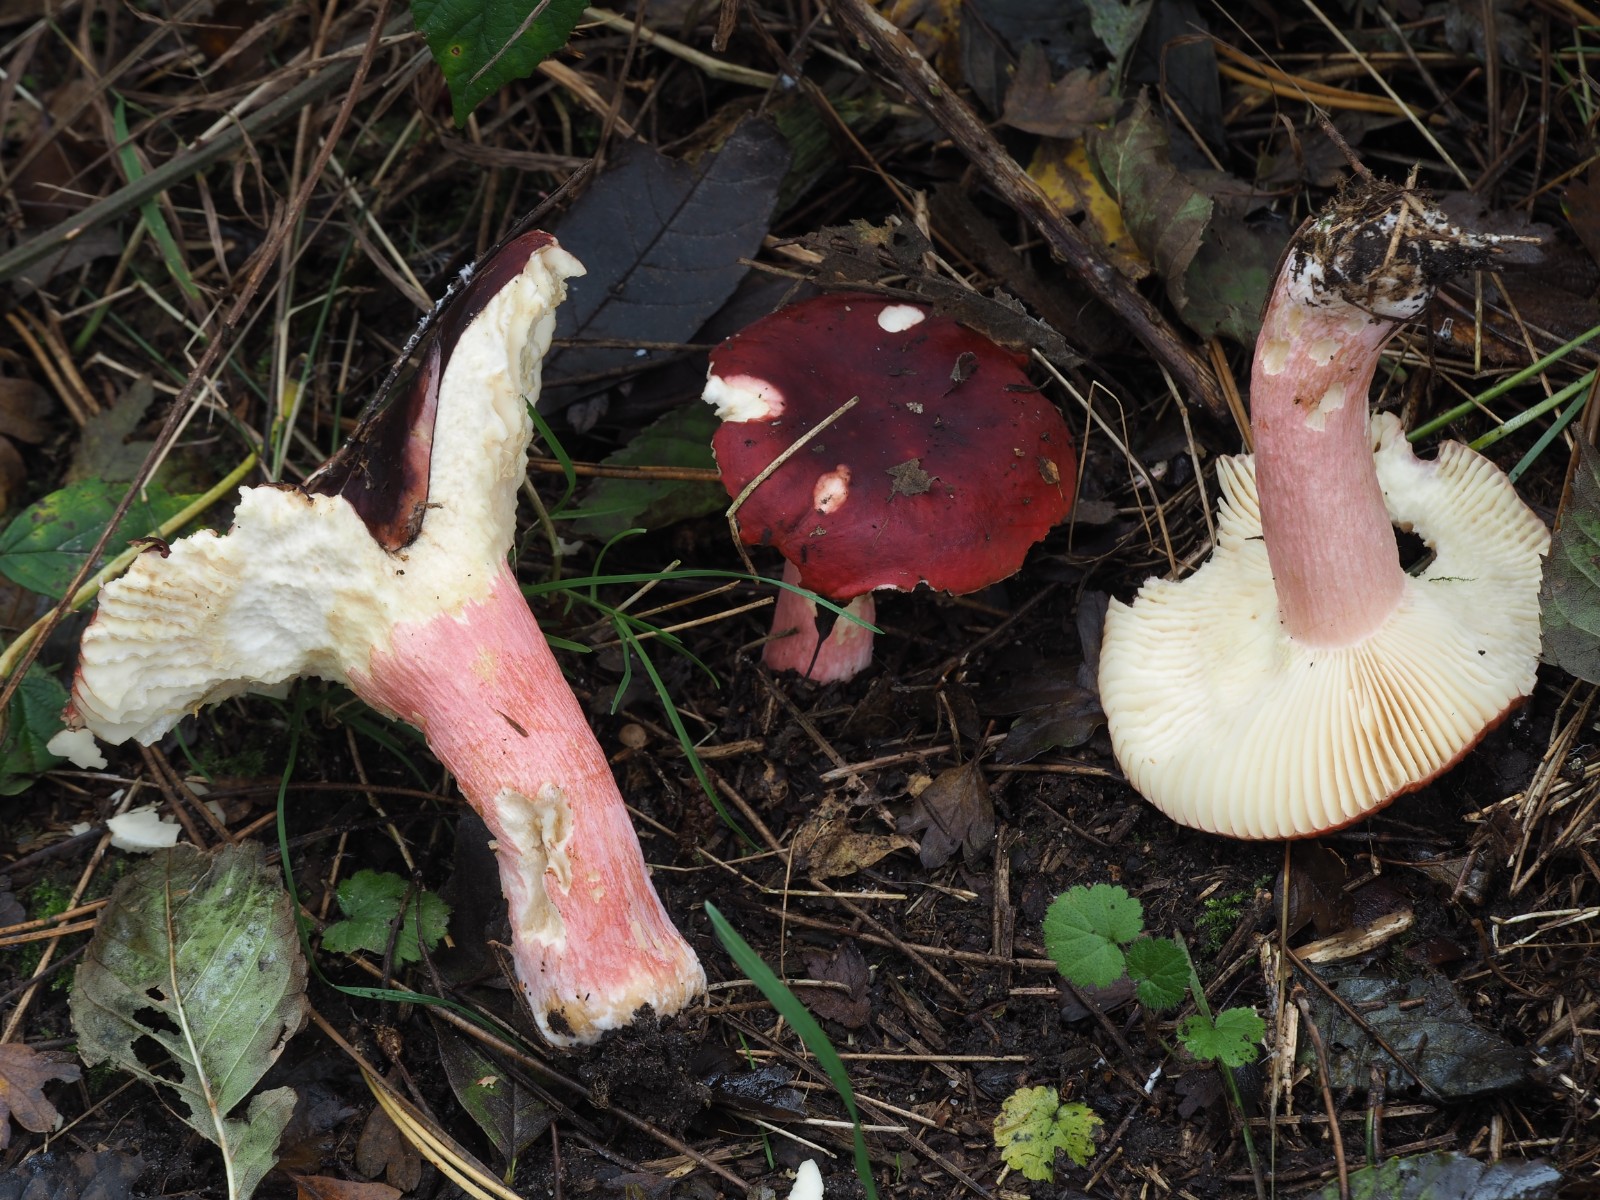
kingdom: Fungi
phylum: Basidiomycota
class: Agaricomycetes
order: Russulales
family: Russulaceae
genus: Russula
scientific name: Russula xerampelina
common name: hummer-skørhat
